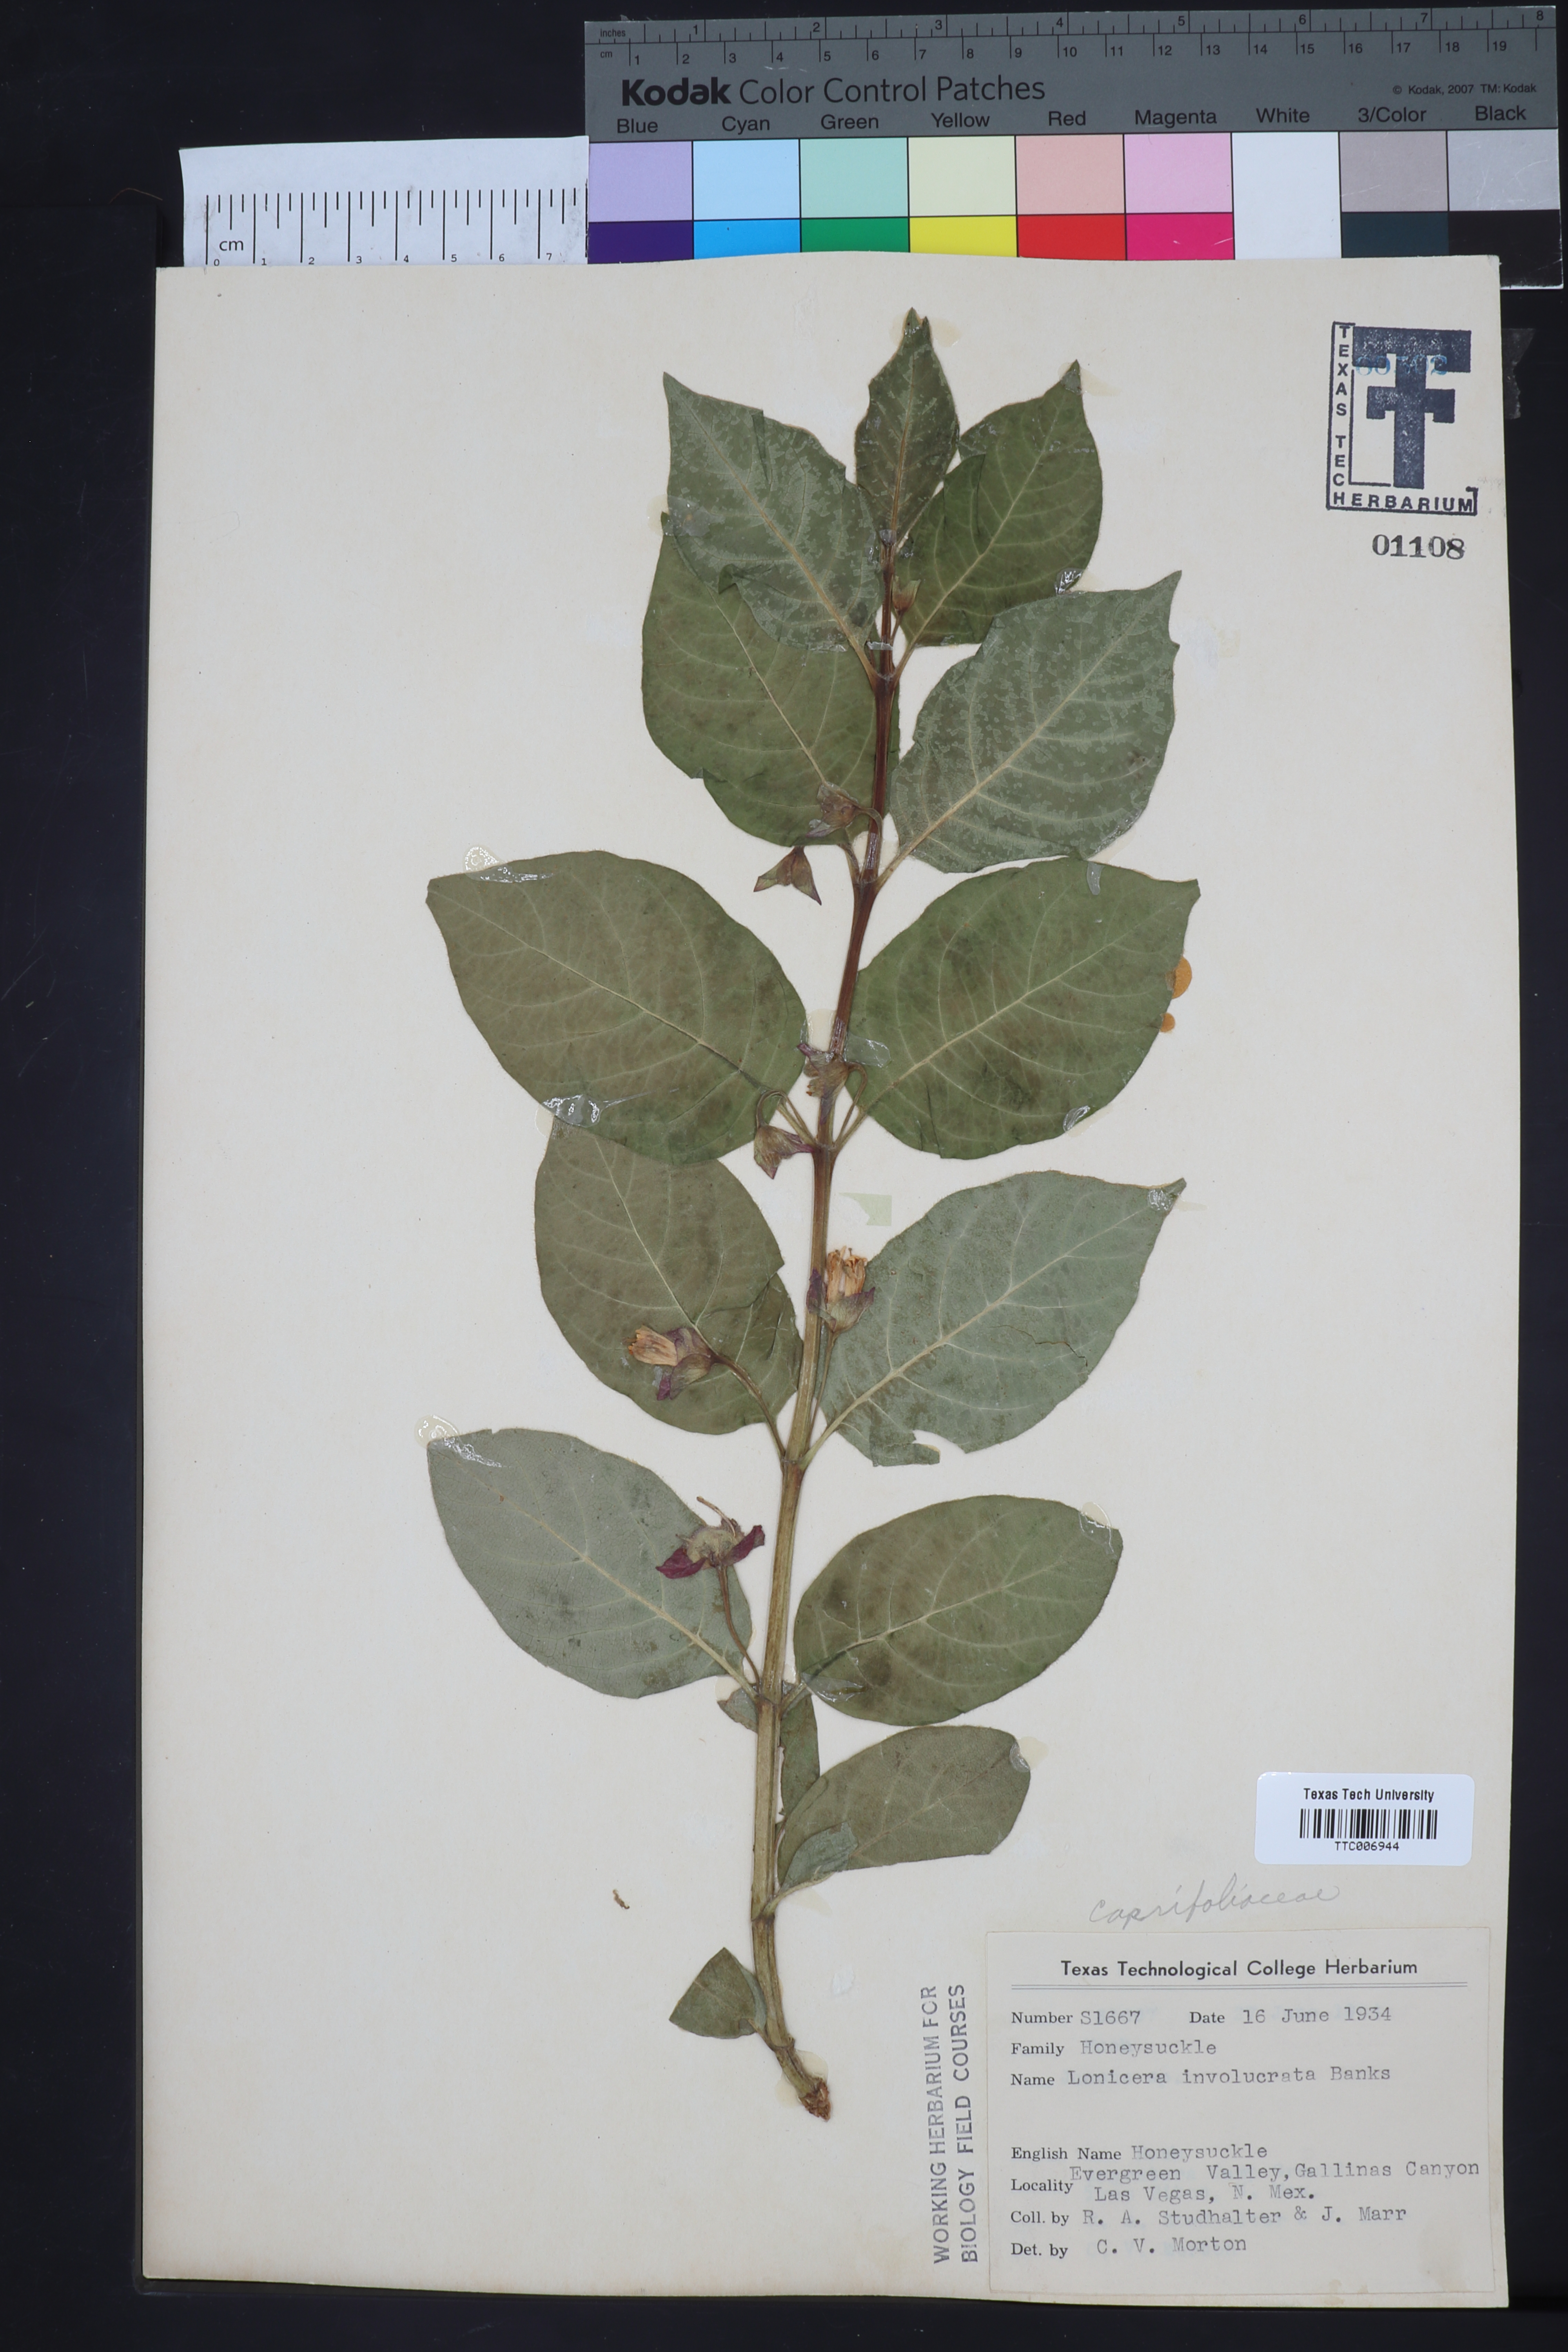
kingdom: Plantae
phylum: Tracheophyta
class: Magnoliopsida
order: Dipsacales
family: Caprifoliaceae
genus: Lonicera
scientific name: Lonicera involucrata
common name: Californian honeysuckle
